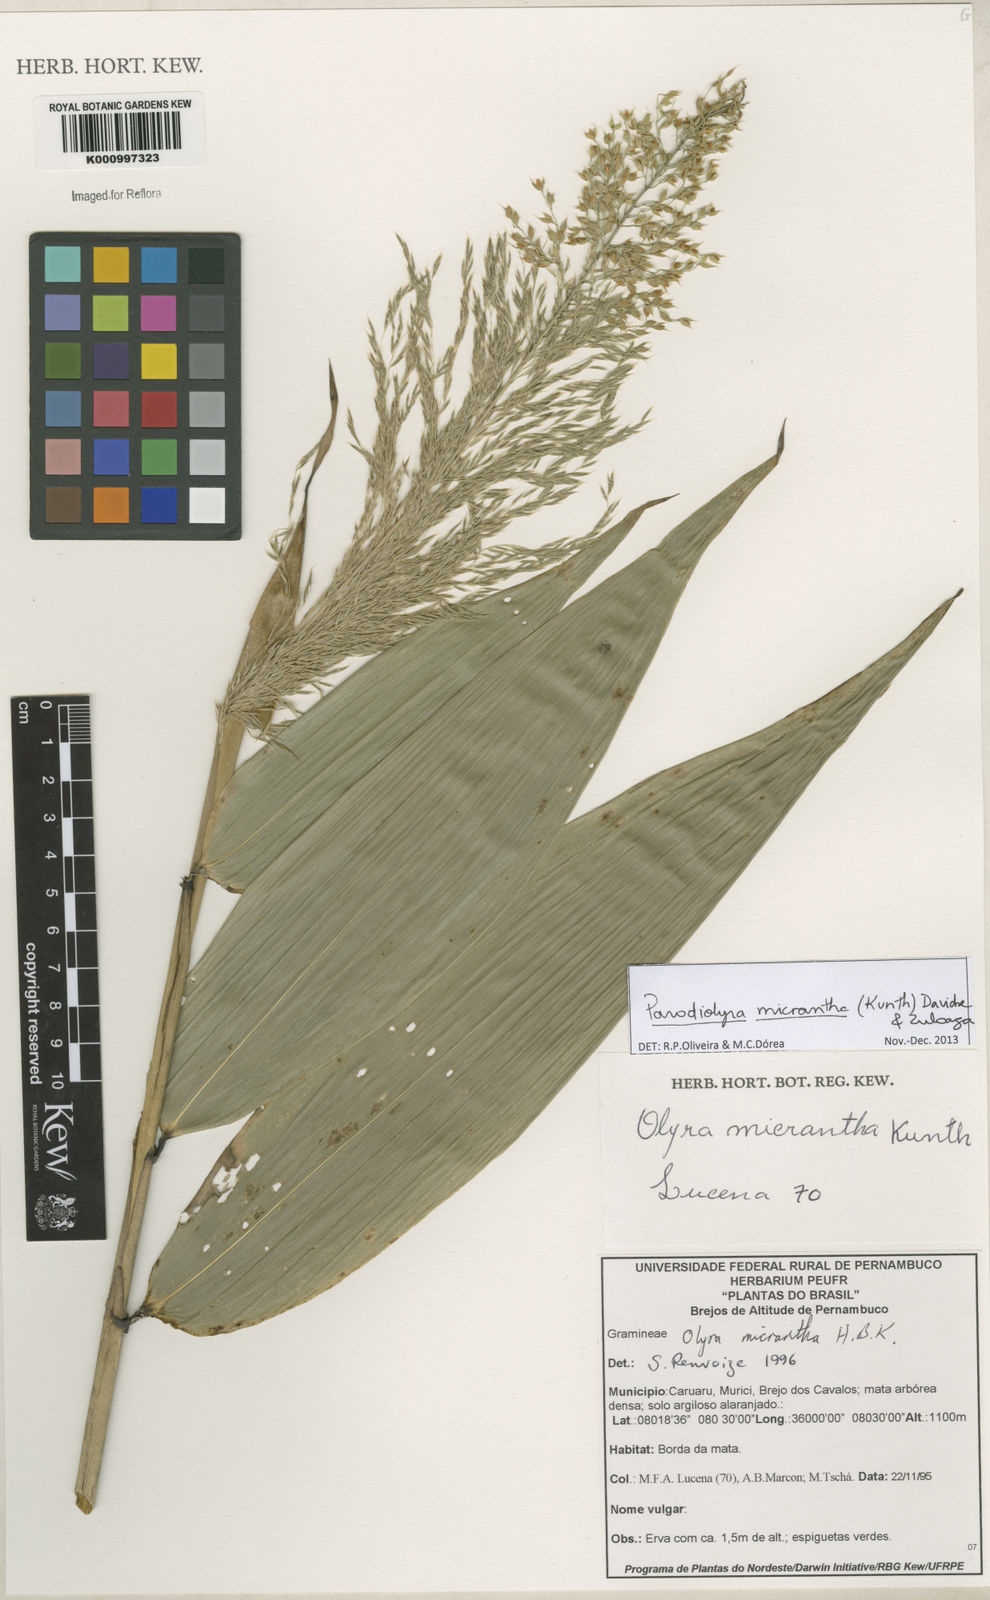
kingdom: Plantae
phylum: Tracheophyta
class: Liliopsida
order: Poales
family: Poaceae
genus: Taquara
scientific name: Taquara micrantha
